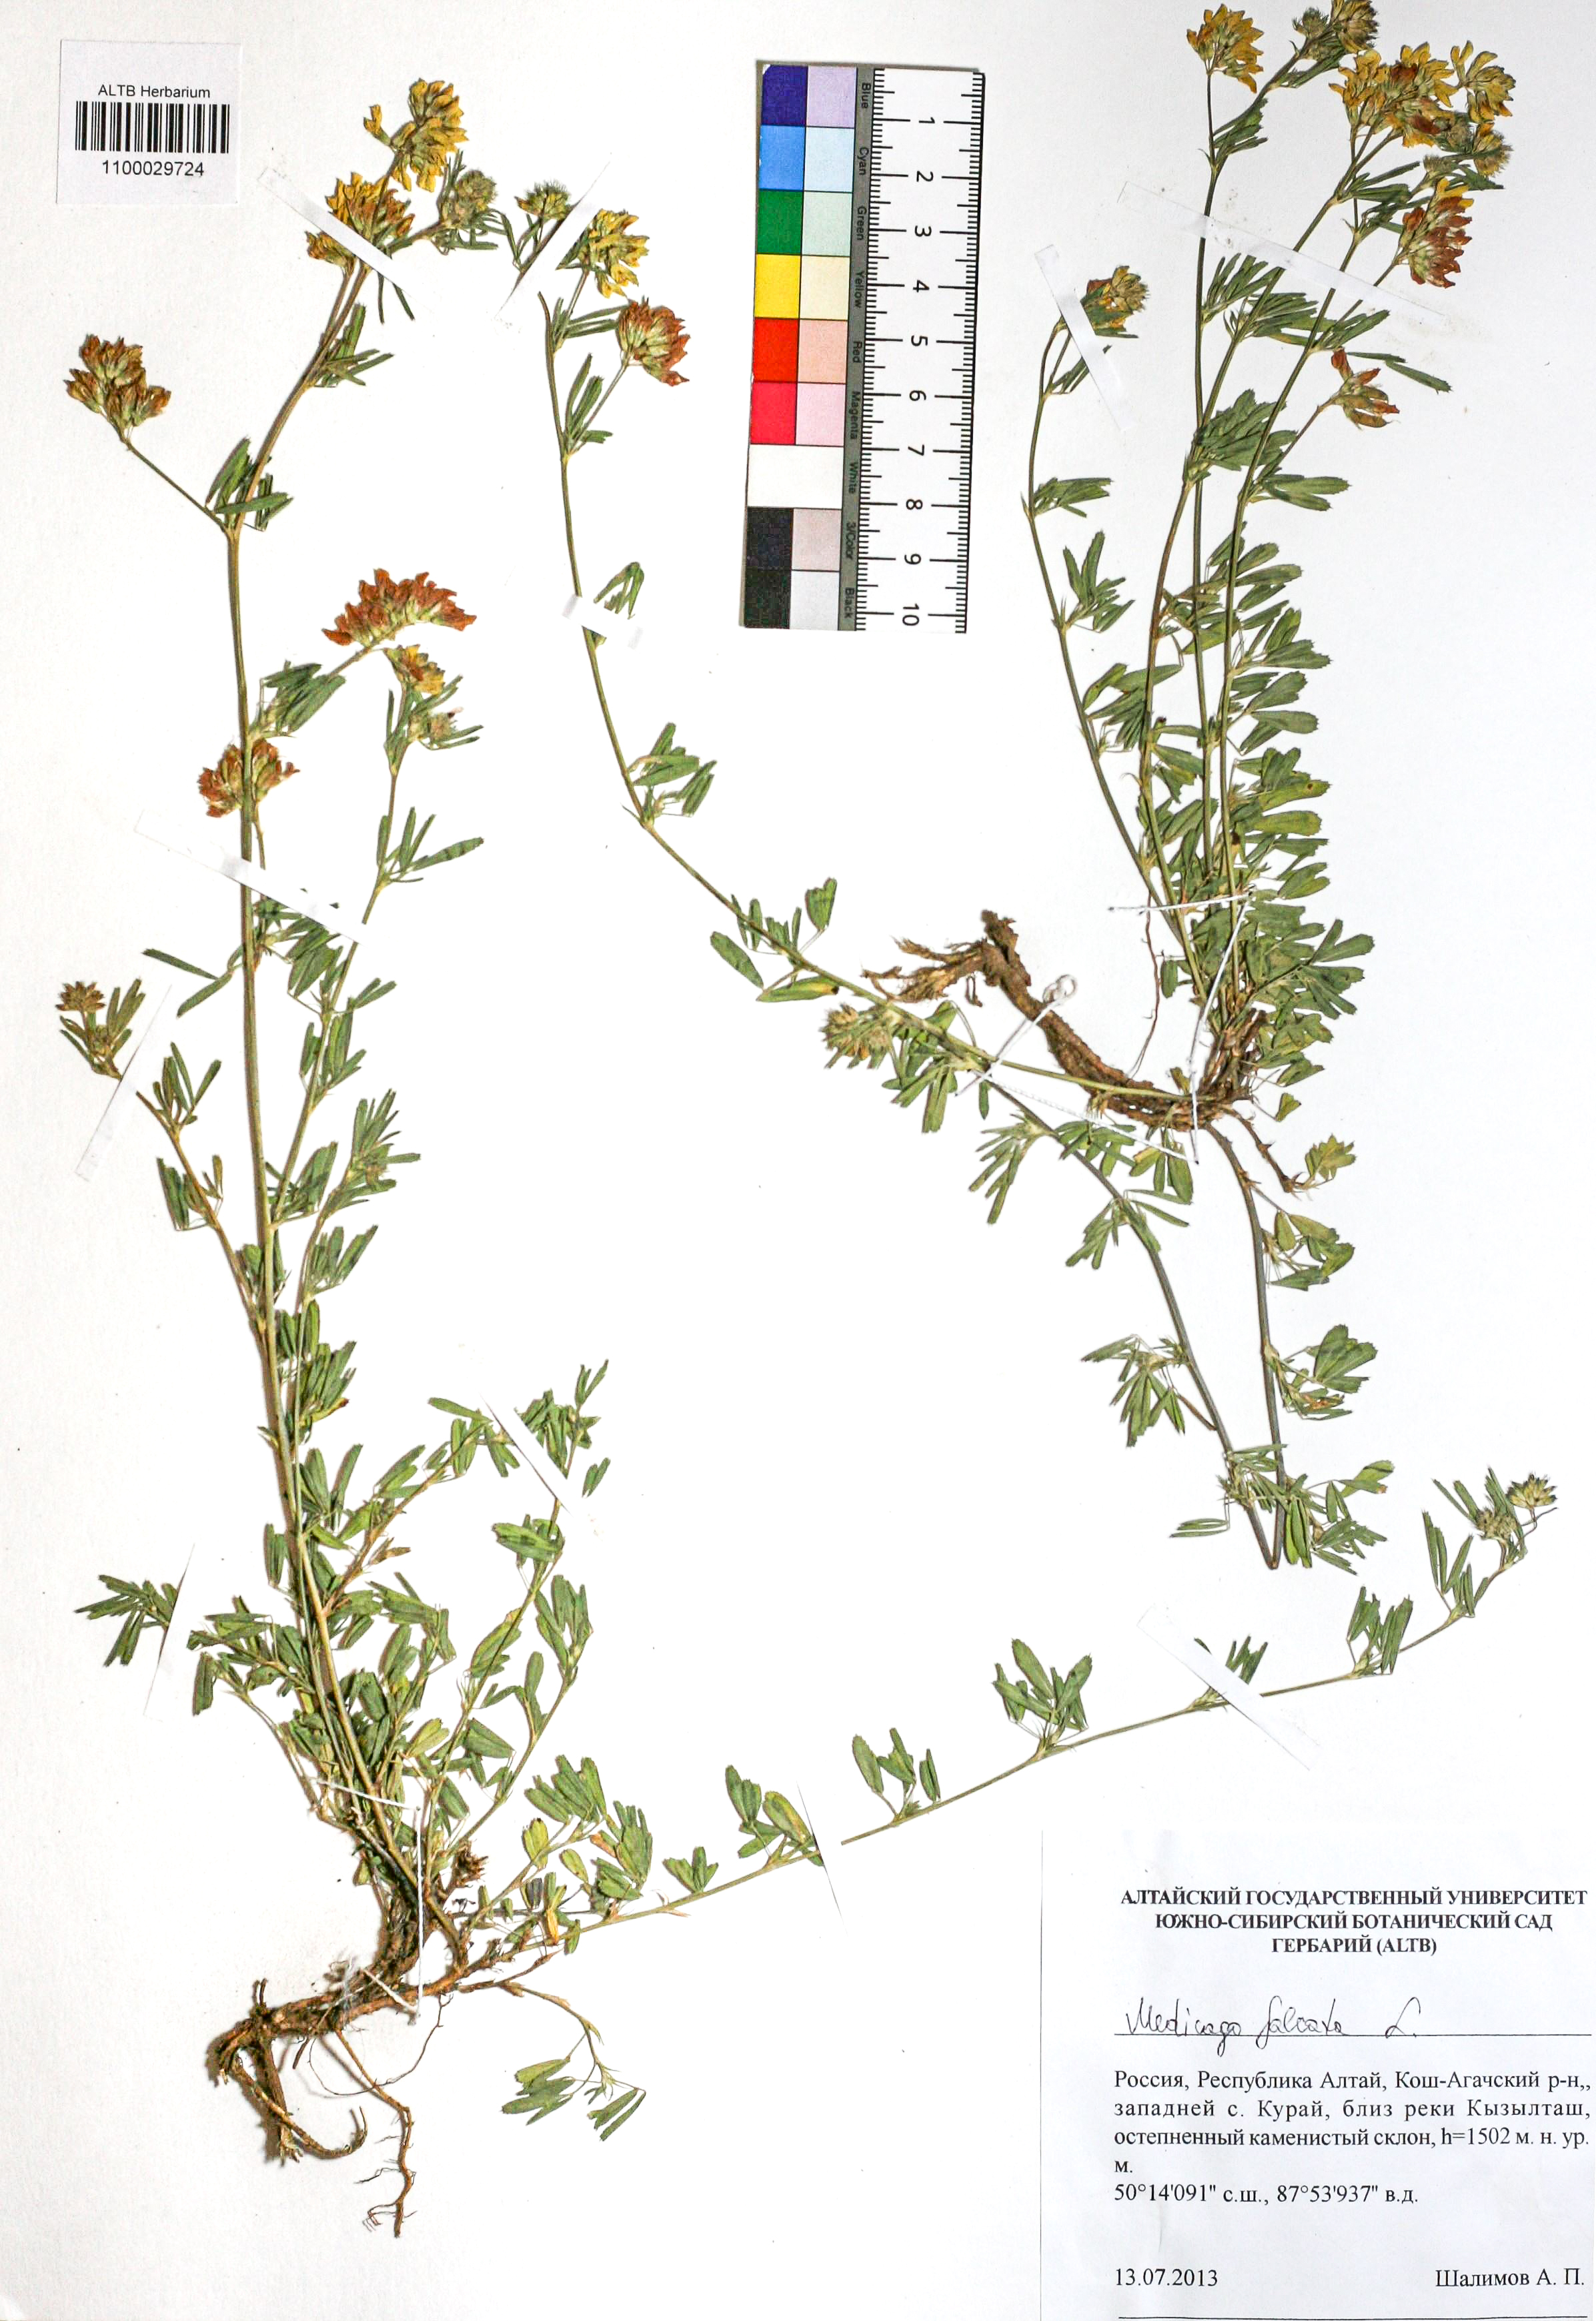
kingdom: Plantae
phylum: Tracheophyta
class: Magnoliopsida
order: Fabales
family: Fabaceae
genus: Medicago
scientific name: Medicago falcata
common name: Sickle medick
